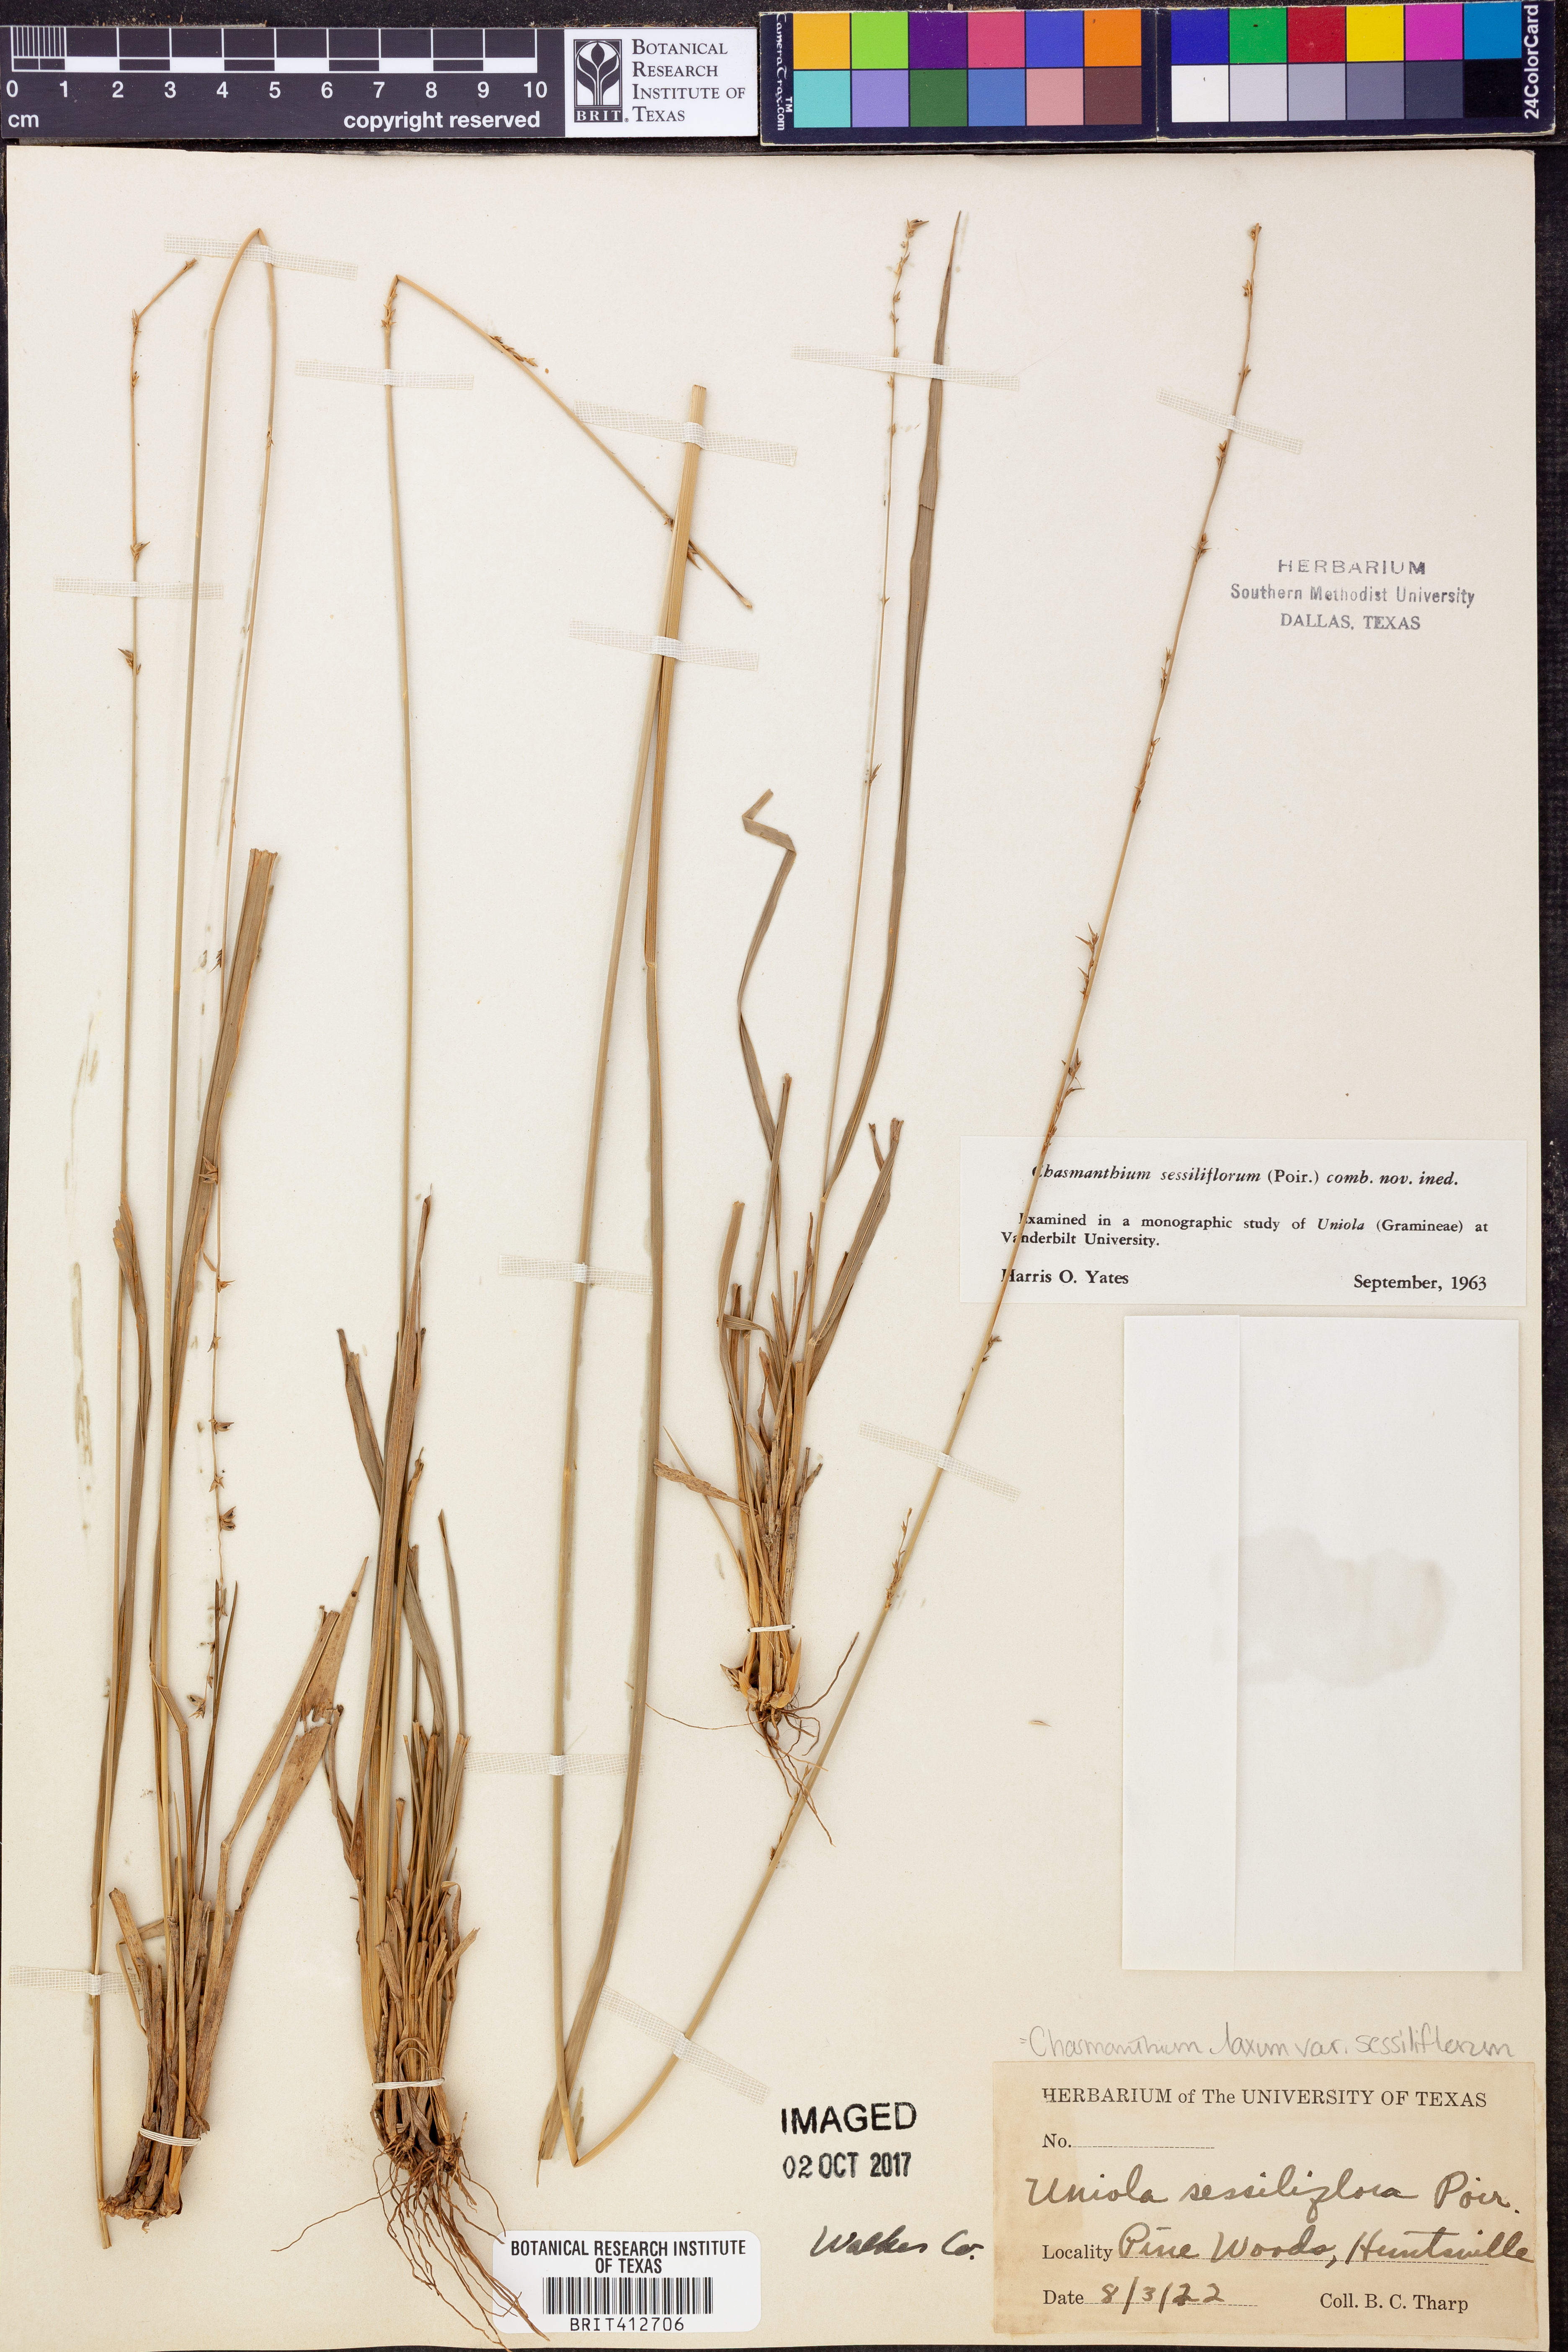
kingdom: Plantae
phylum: Tracheophyta
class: Liliopsida
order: Poales
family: Poaceae
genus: Chasmanthium
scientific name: Chasmanthium laxum
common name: Slender chasmanthium
